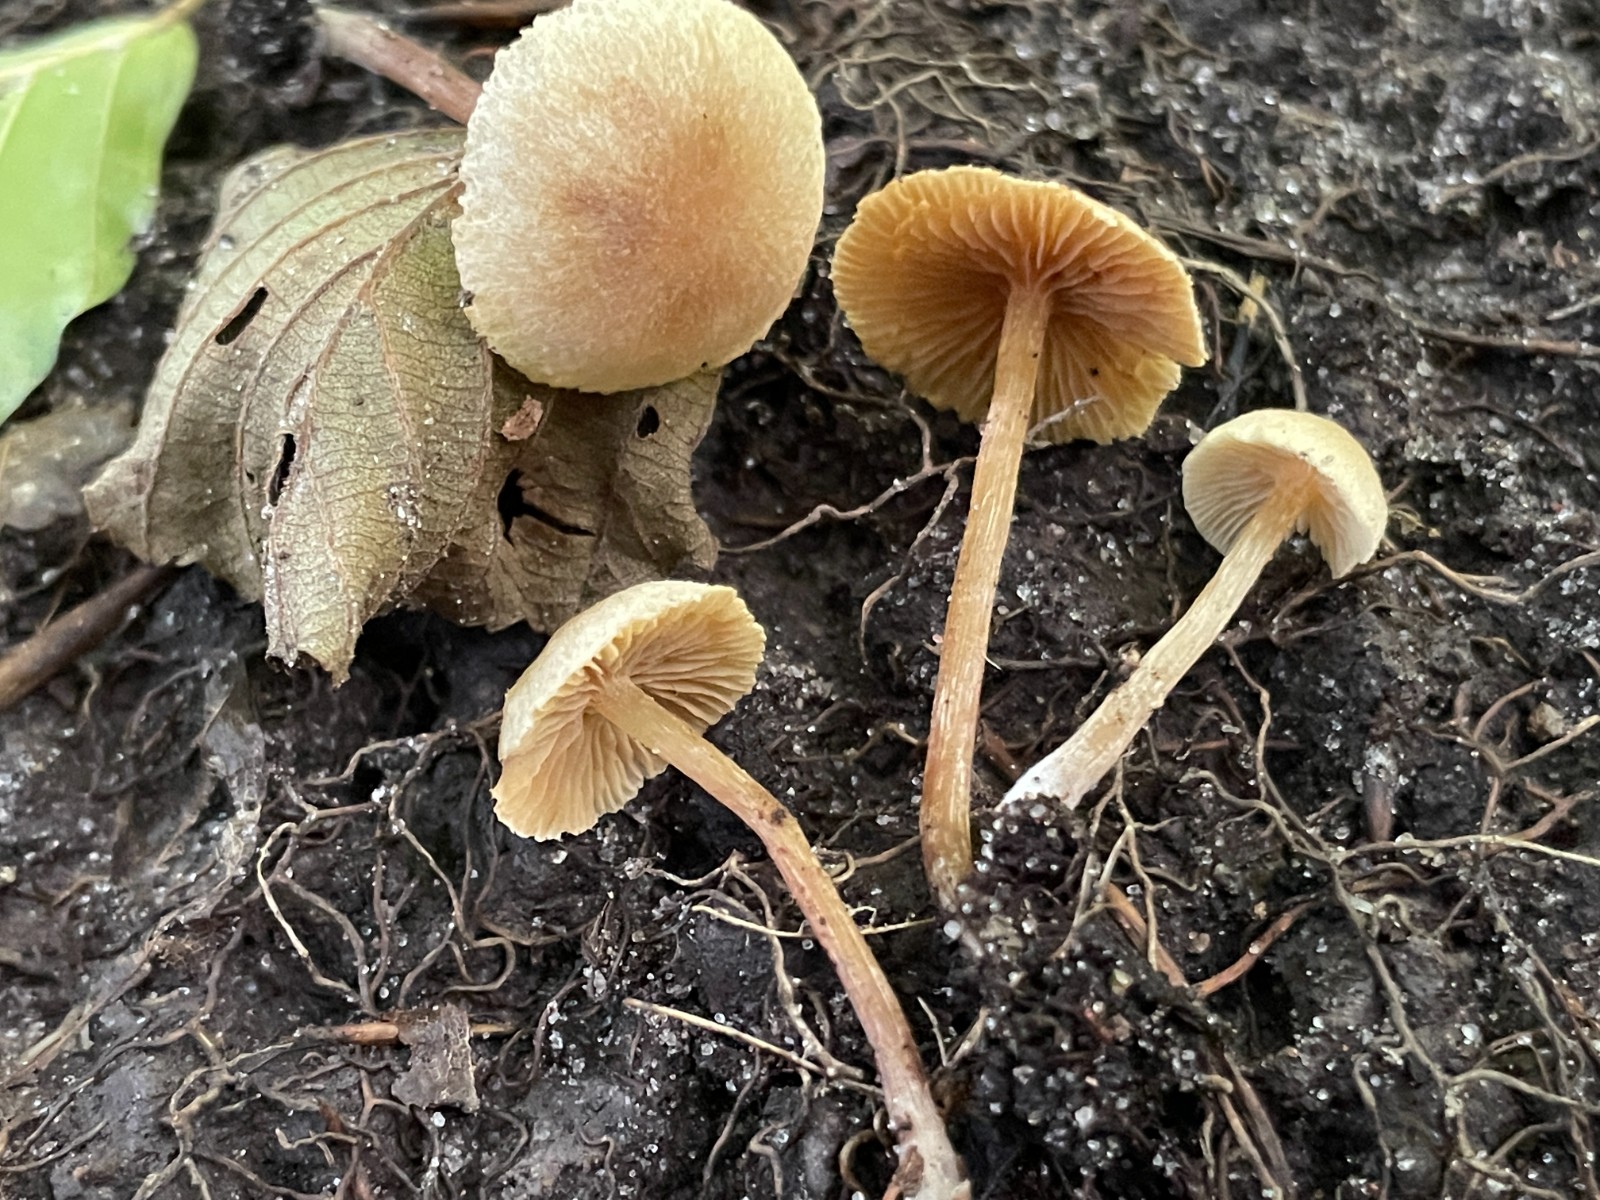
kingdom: Fungi
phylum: Basidiomycota
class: Agaricomycetes
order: Agaricales
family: Hymenogastraceae
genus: Naucoria
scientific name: Naucoria escharioides
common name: lys elle-knaphat
